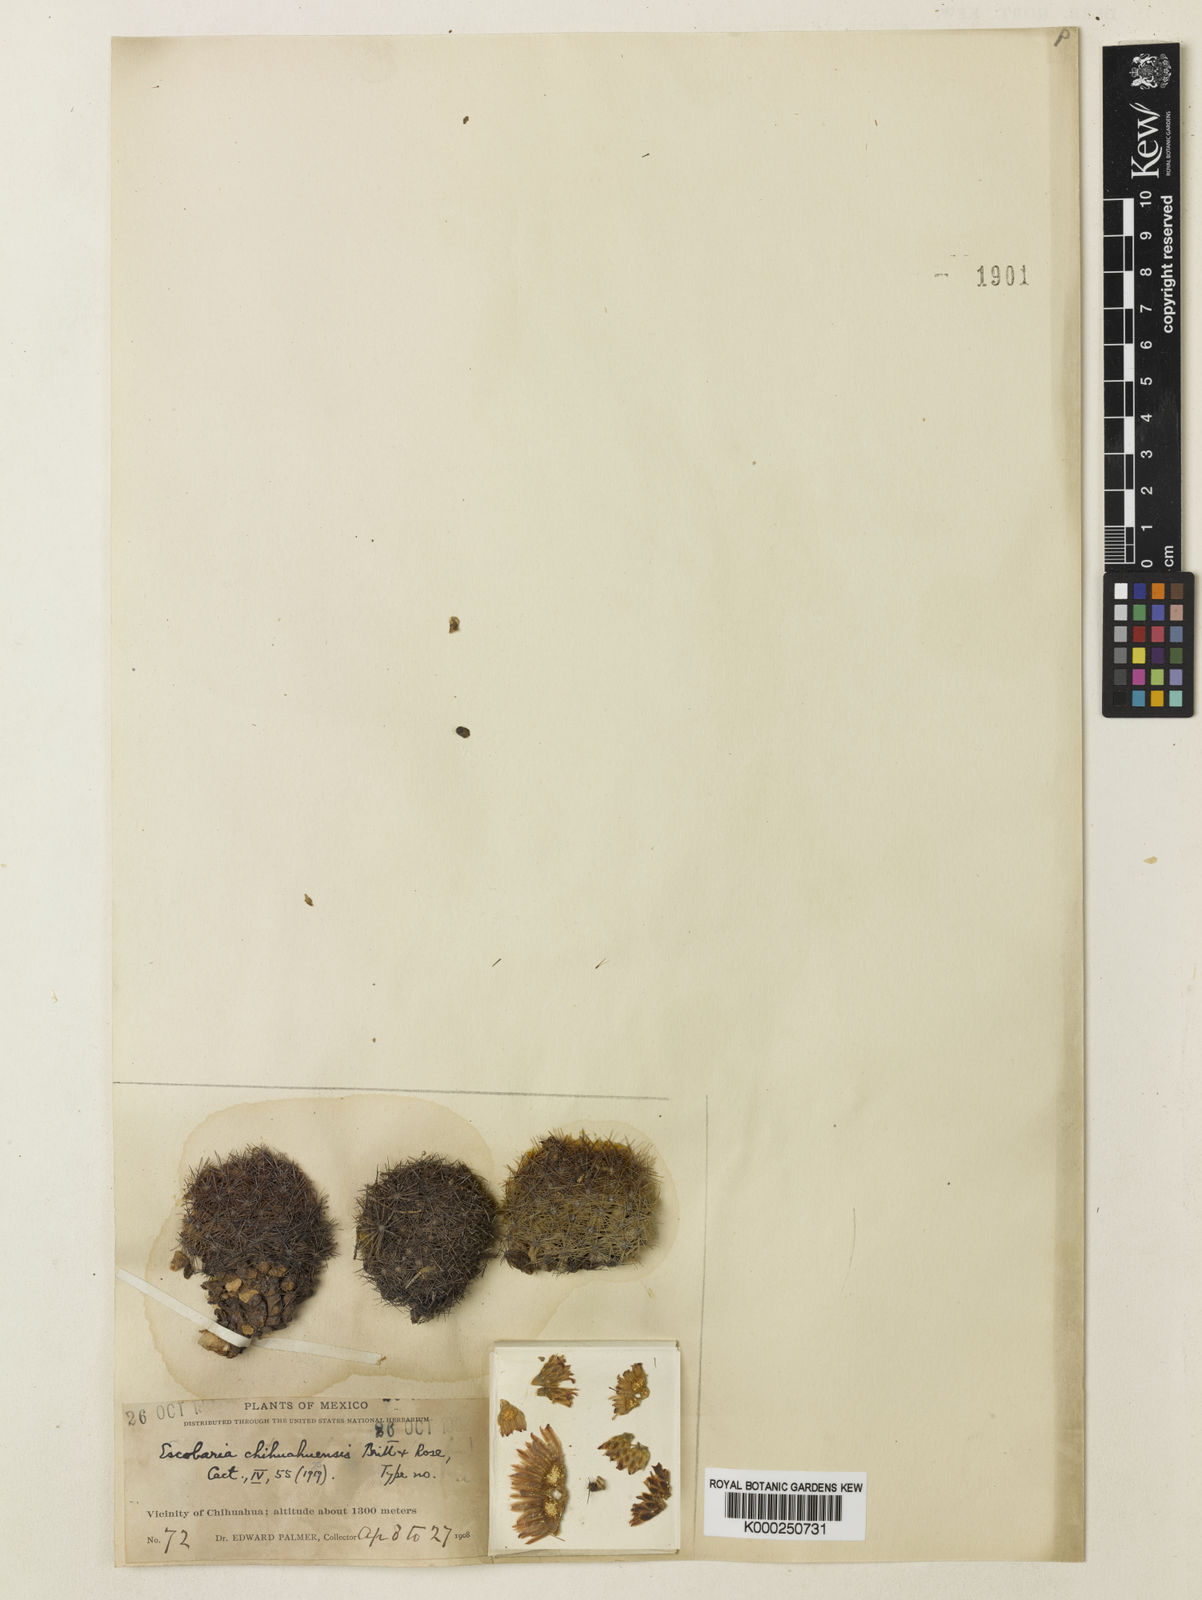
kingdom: Plantae
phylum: Tracheophyta
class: Magnoliopsida
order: Caryophyllales
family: Cactaceae
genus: Pelecyphora
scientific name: Pelecyphora chihuahuensis
